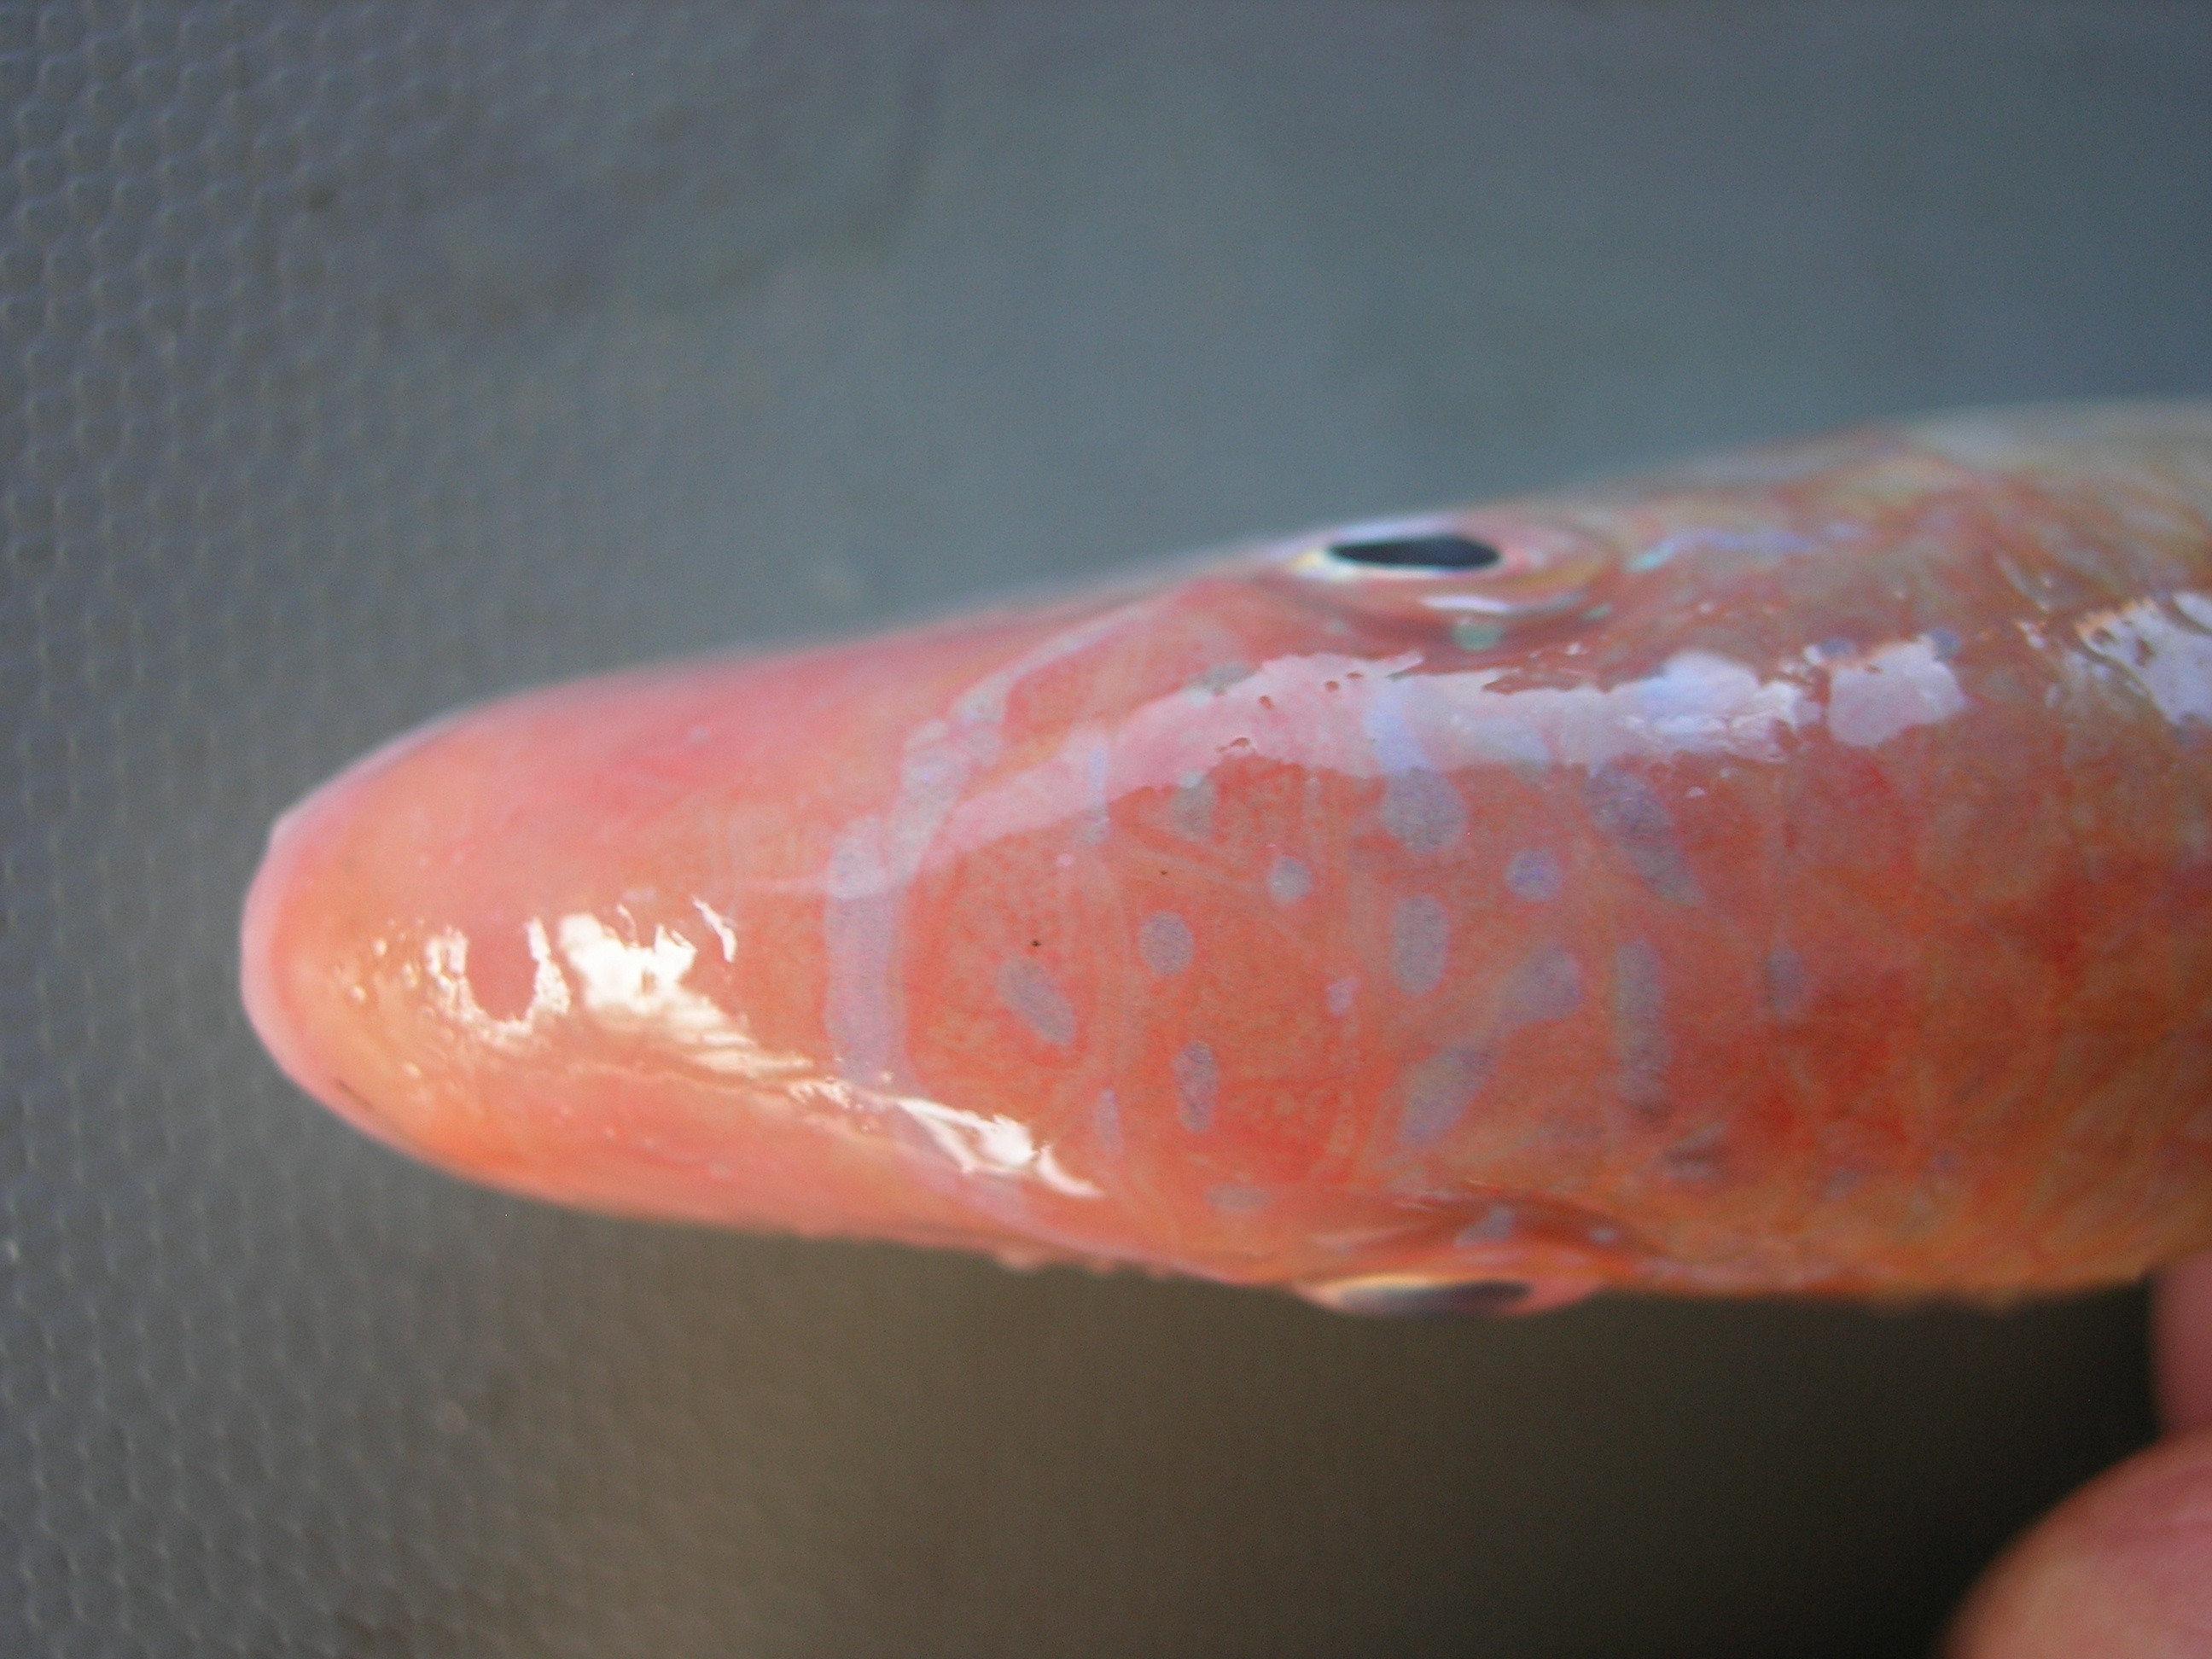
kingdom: Animalia
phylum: Chordata
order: Perciformes
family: Mullidae
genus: Parupeneus
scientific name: Parupeneus heptacanthus
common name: Cinnabar goatfish
